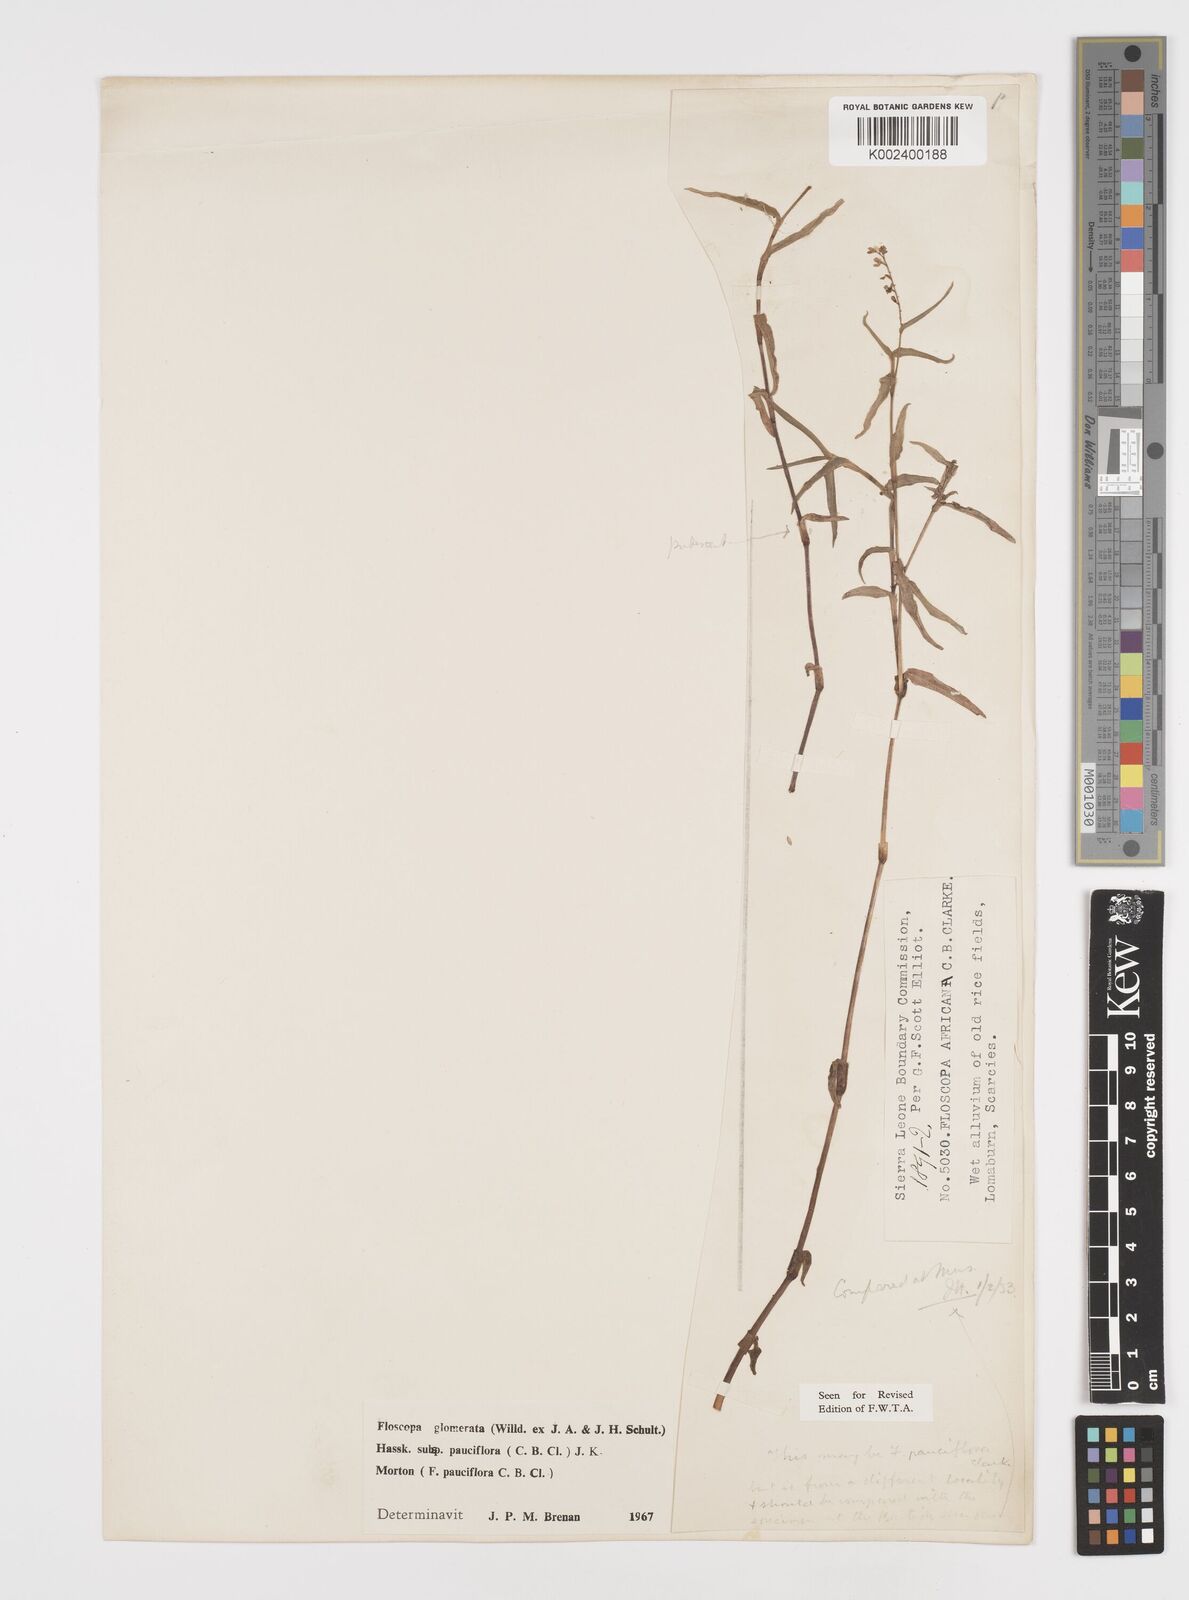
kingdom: Plantae
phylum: Tracheophyta
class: Liliopsida
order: Commelinales
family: Commelinaceae
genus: Floscopa
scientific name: Floscopa glomerata
